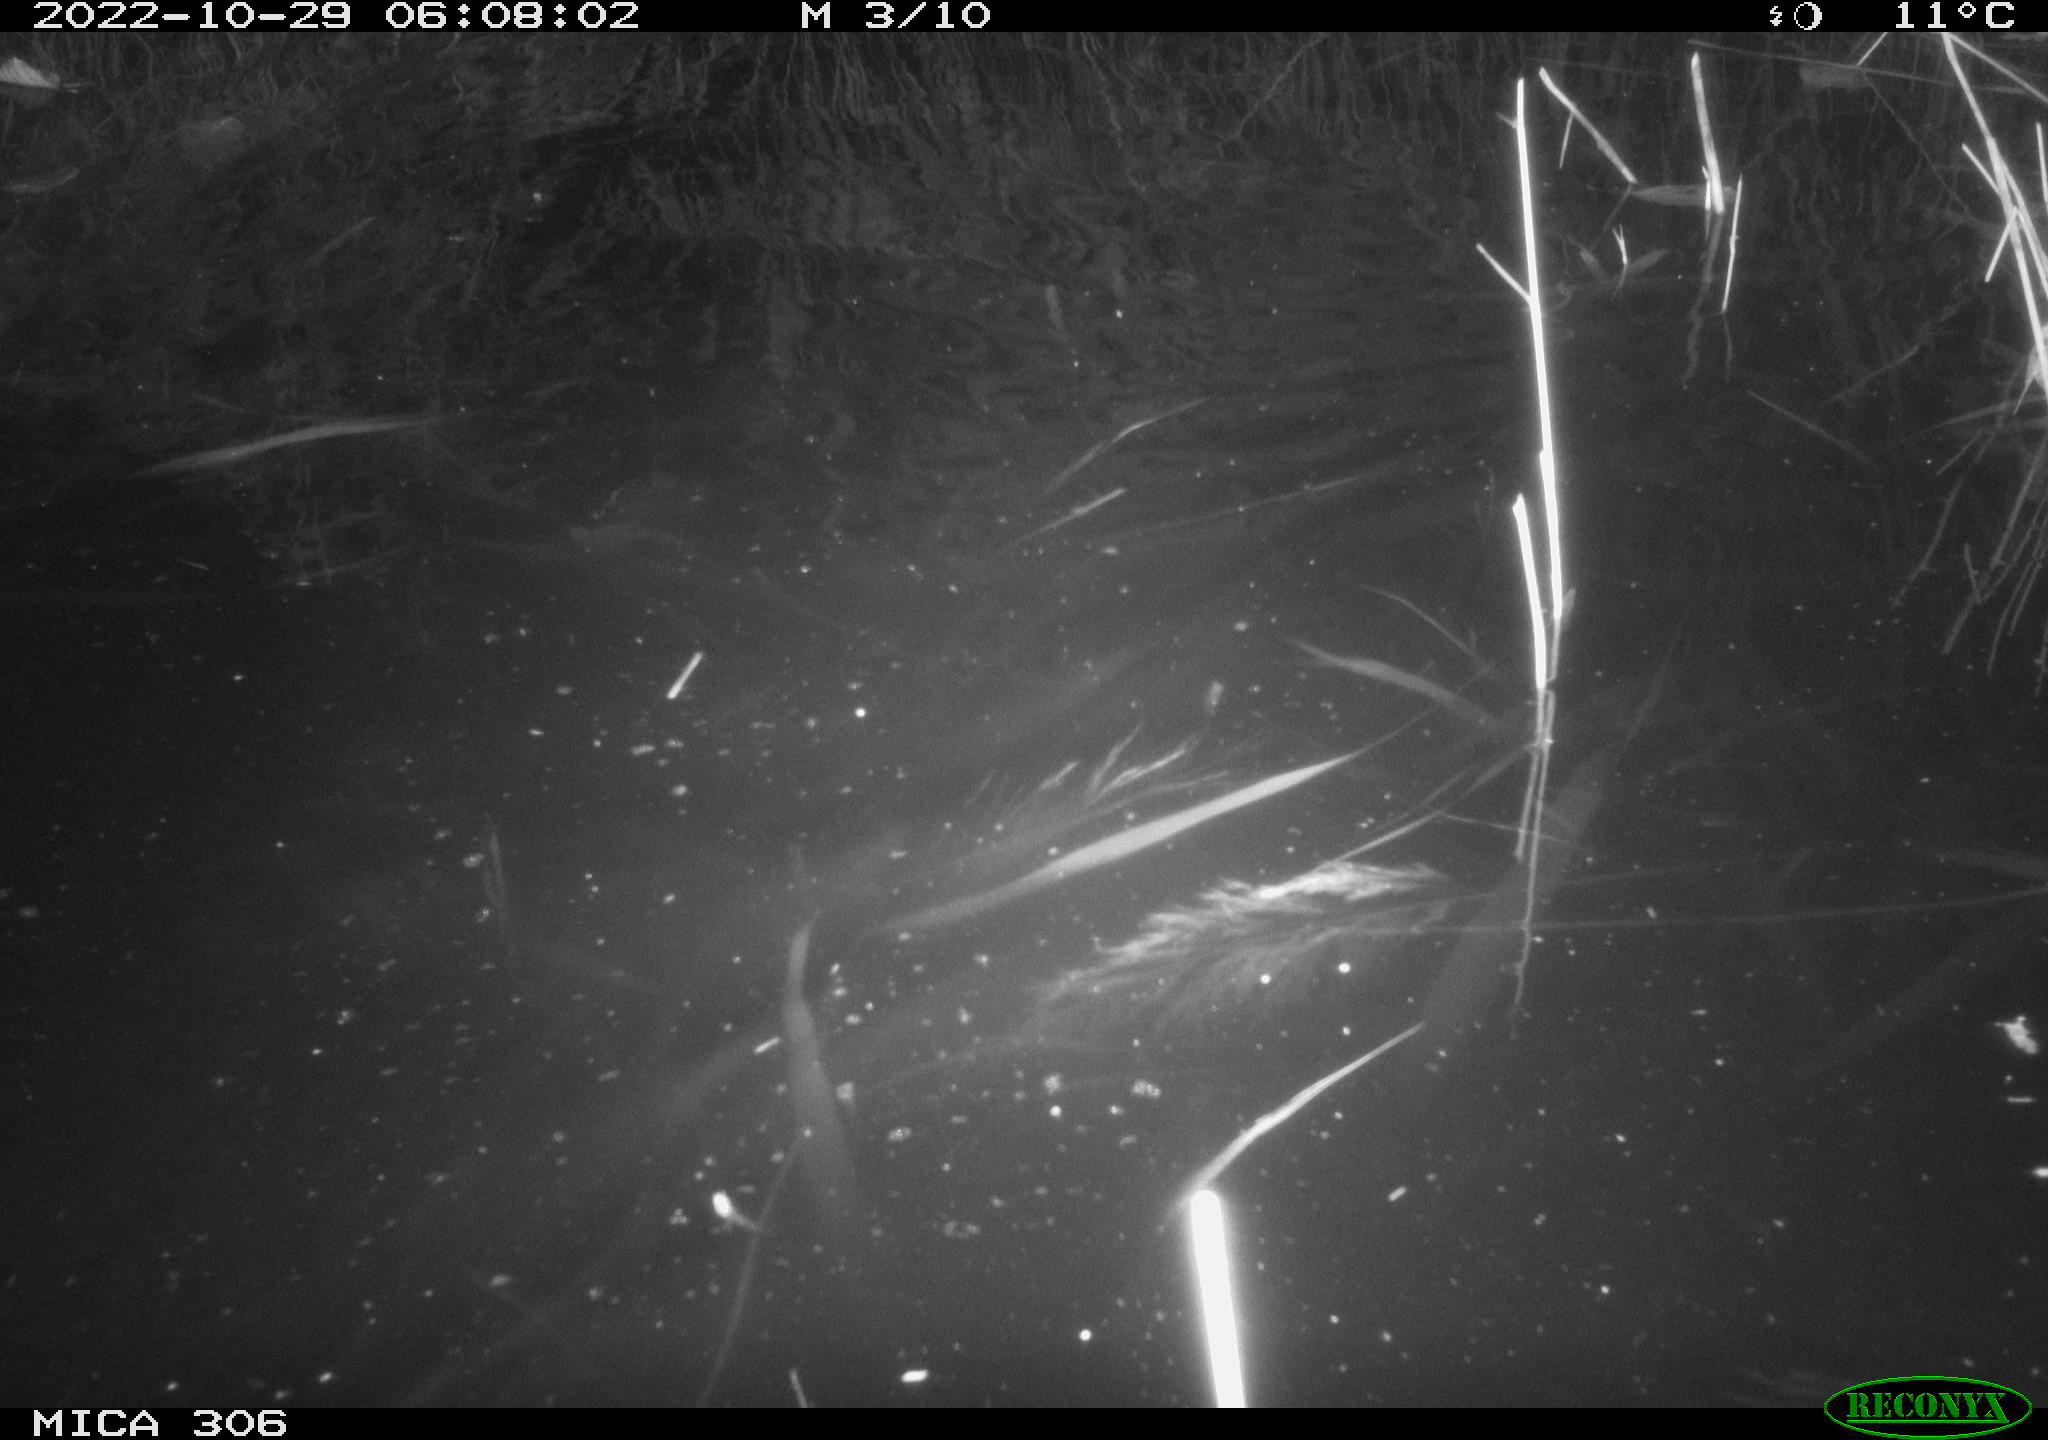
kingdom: Animalia
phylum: Chordata
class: Mammalia
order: Rodentia
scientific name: Rodentia
